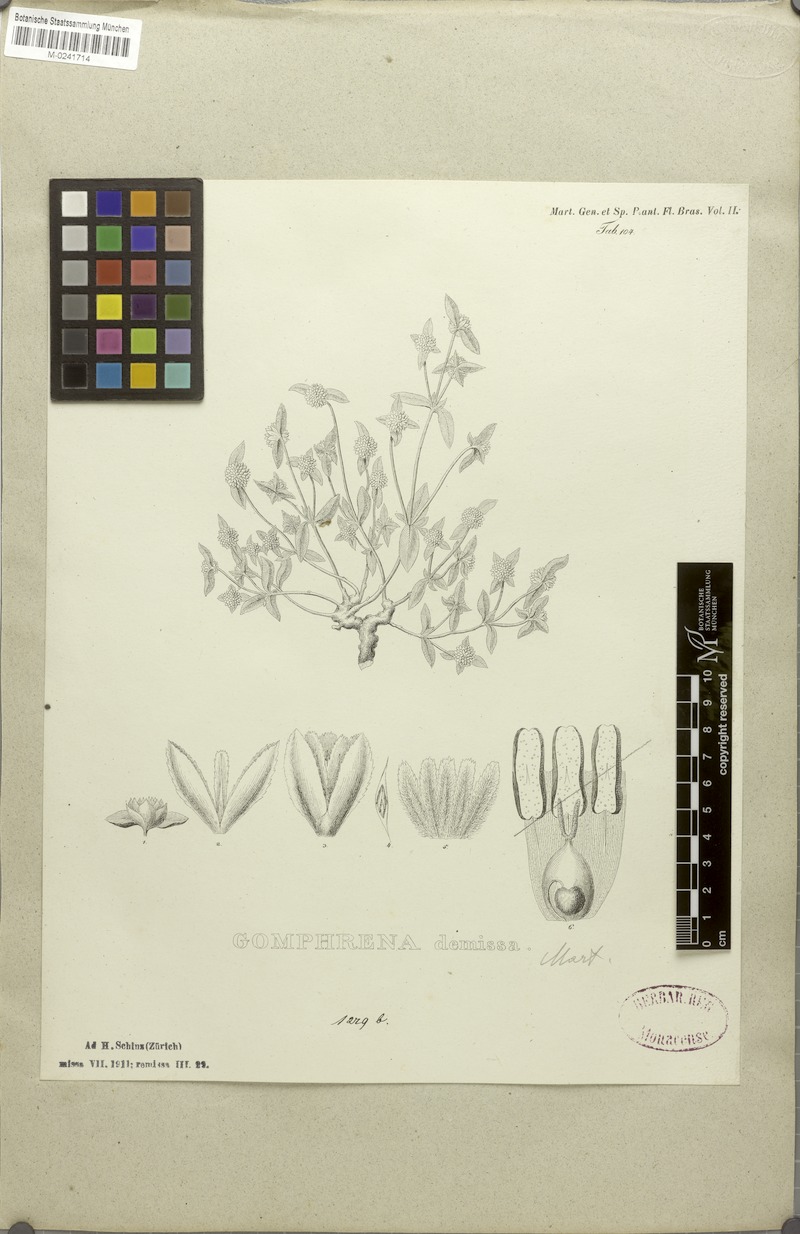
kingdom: Plantae
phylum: Tracheophyta
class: Magnoliopsida
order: Caryophyllales
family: Amaranthaceae
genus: Gomphrena
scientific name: Gomphrena demissa
